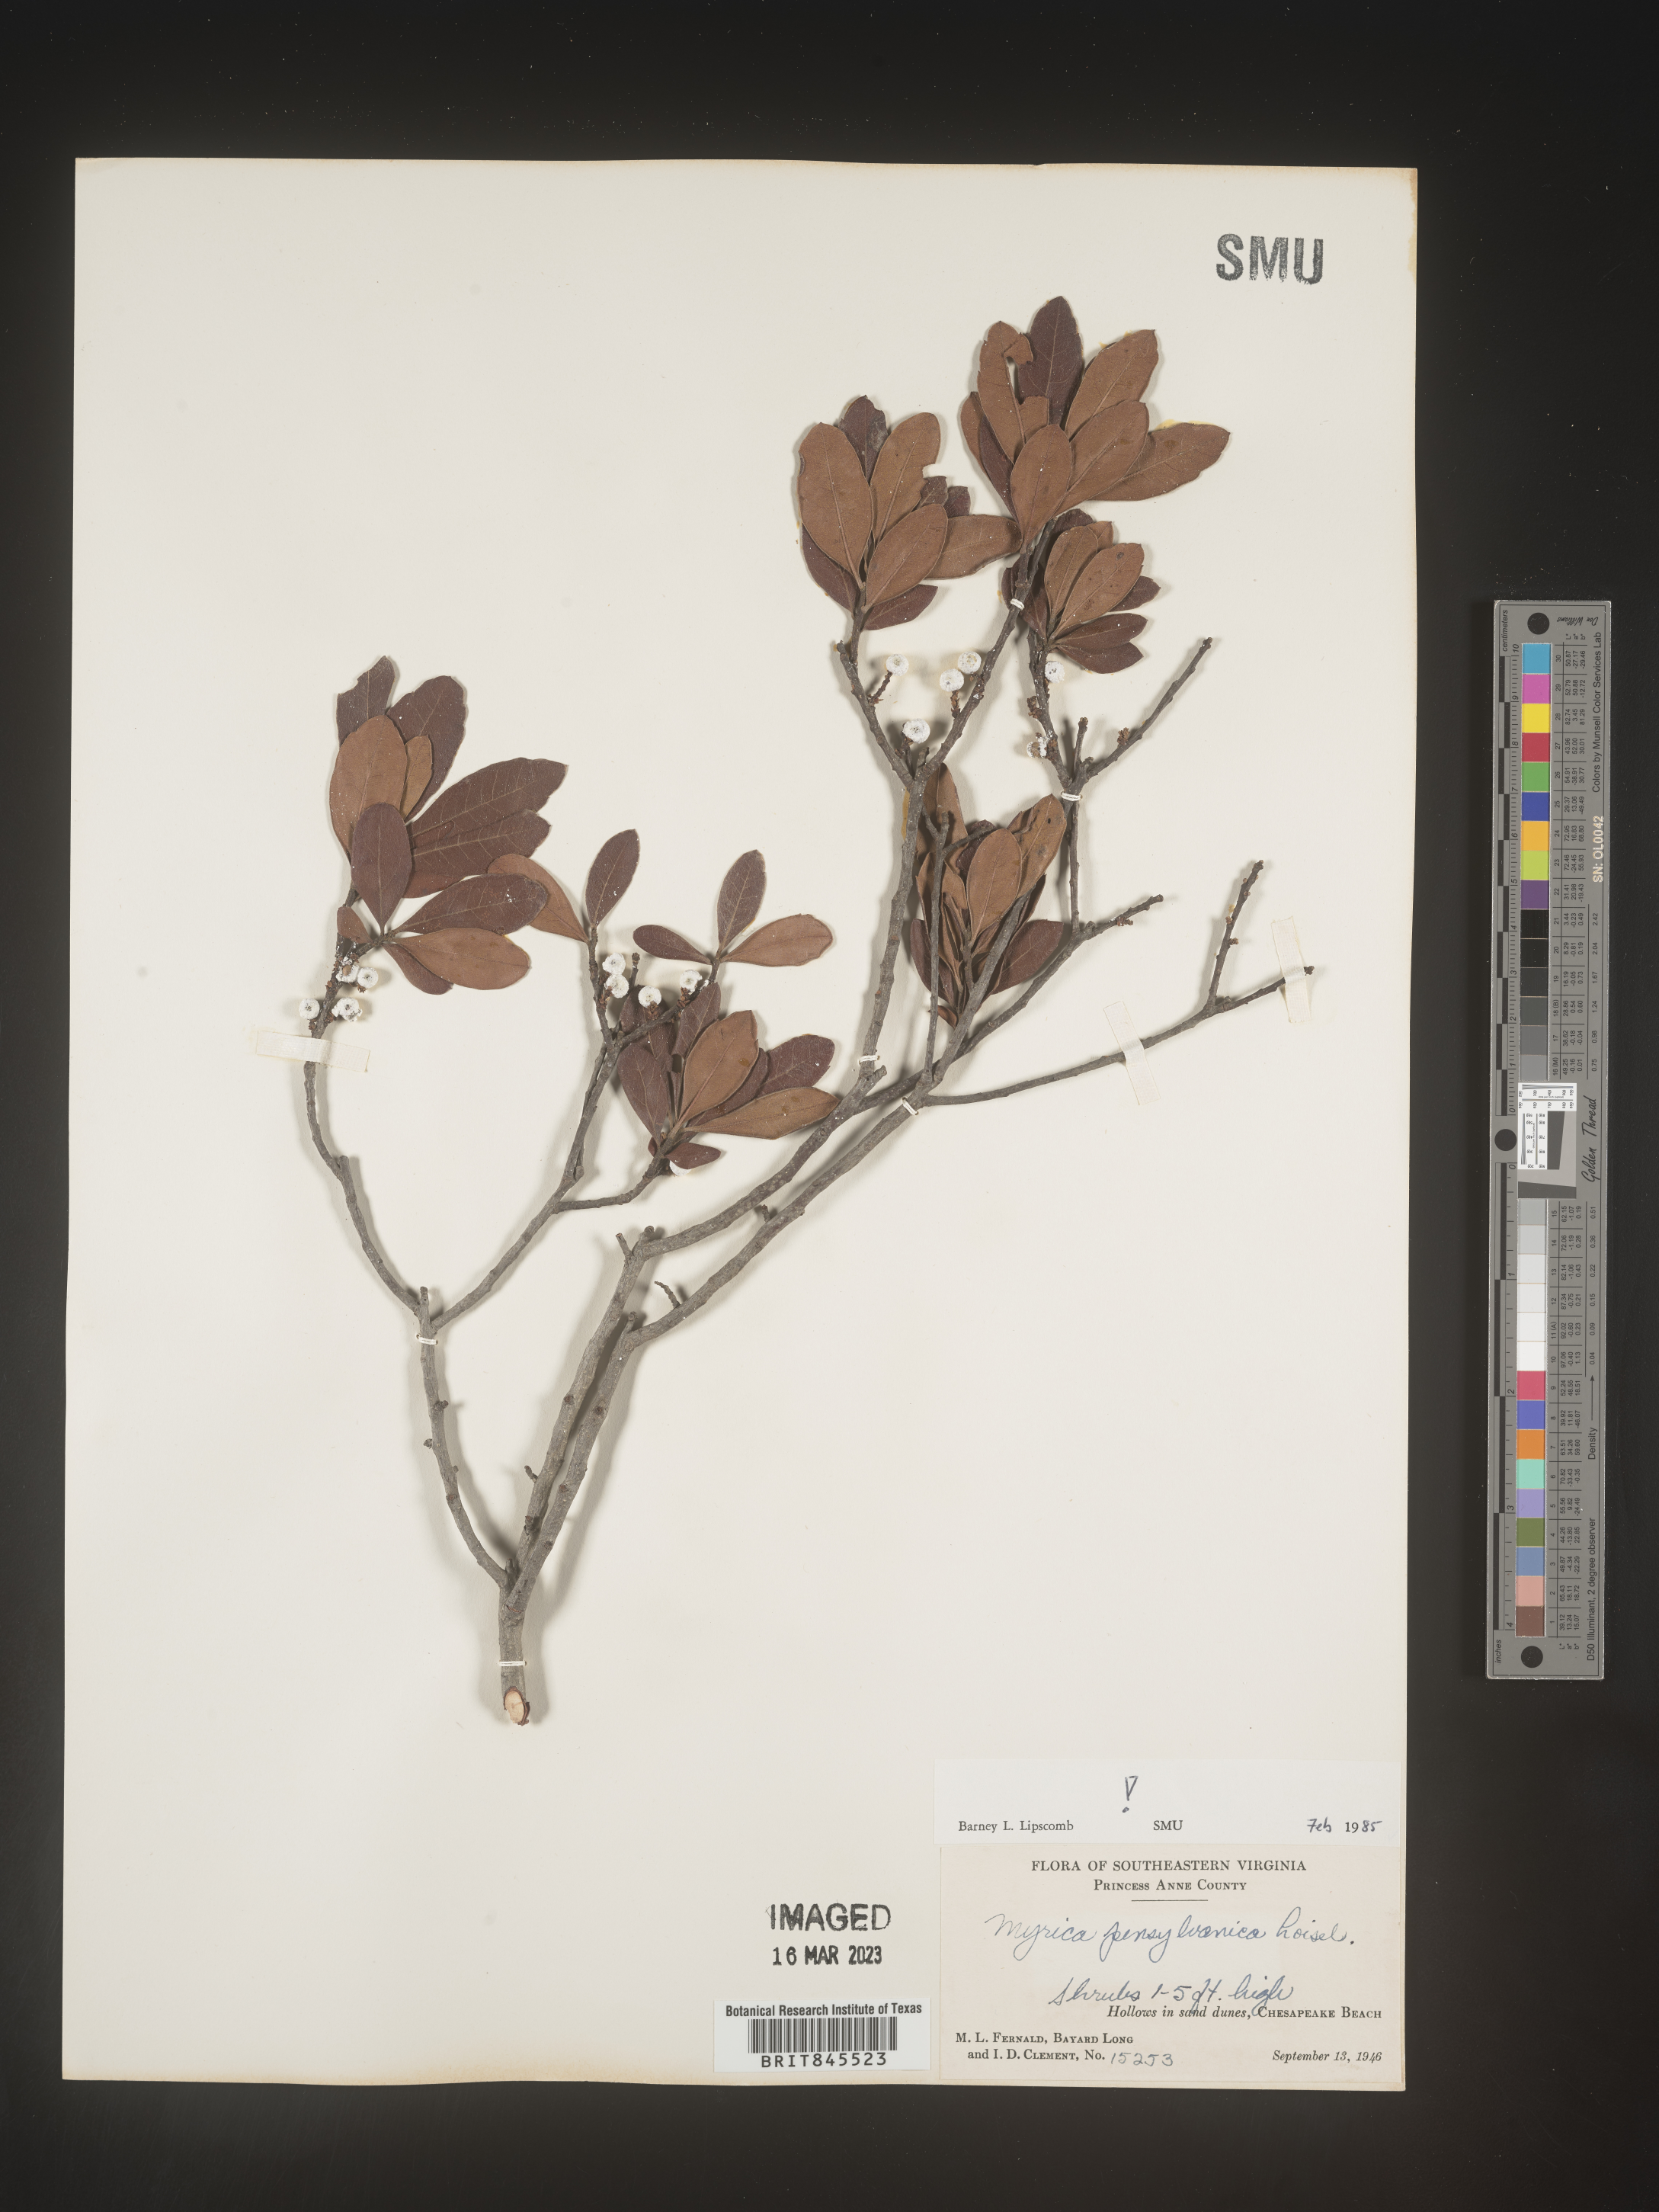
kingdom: Plantae
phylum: Tracheophyta
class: Magnoliopsida
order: Fagales
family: Myricaceae
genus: Myrica
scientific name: Myrica
